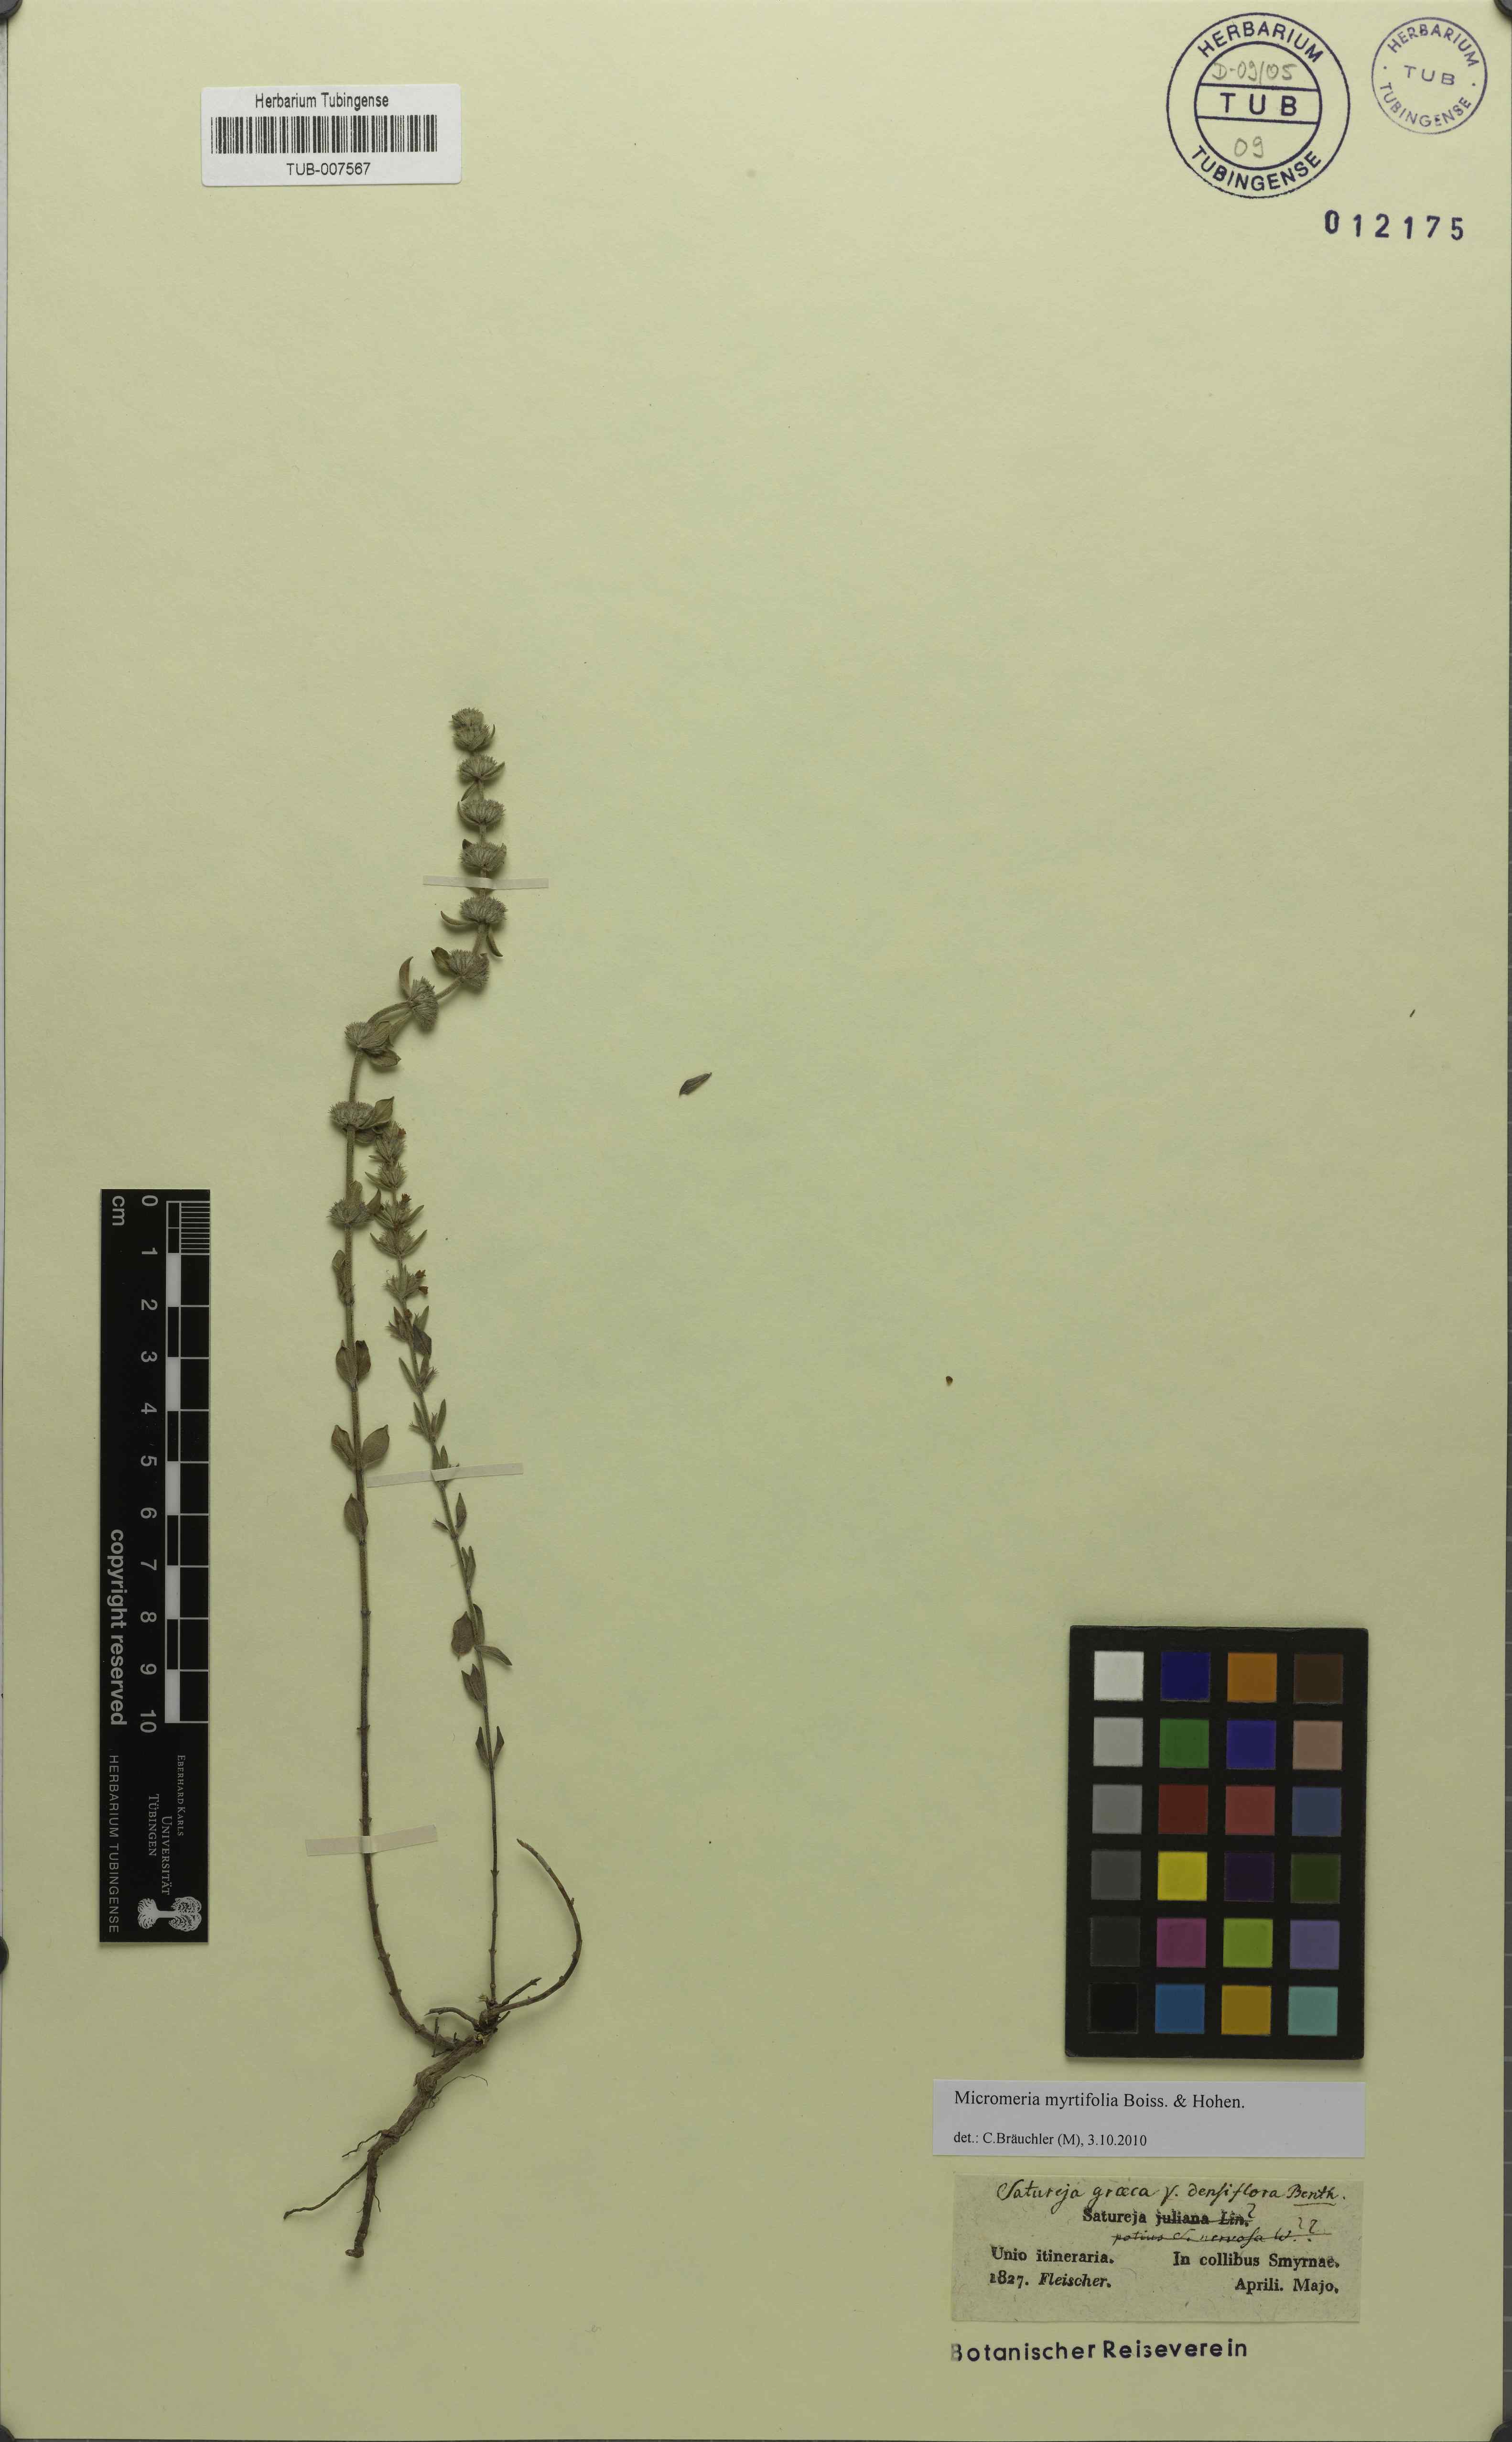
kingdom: Plantae
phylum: Tracheophyta
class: Magnoliopsida
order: Lamiales
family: Lamiaceae
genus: Micromeria
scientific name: Micromeria myrtifolia
